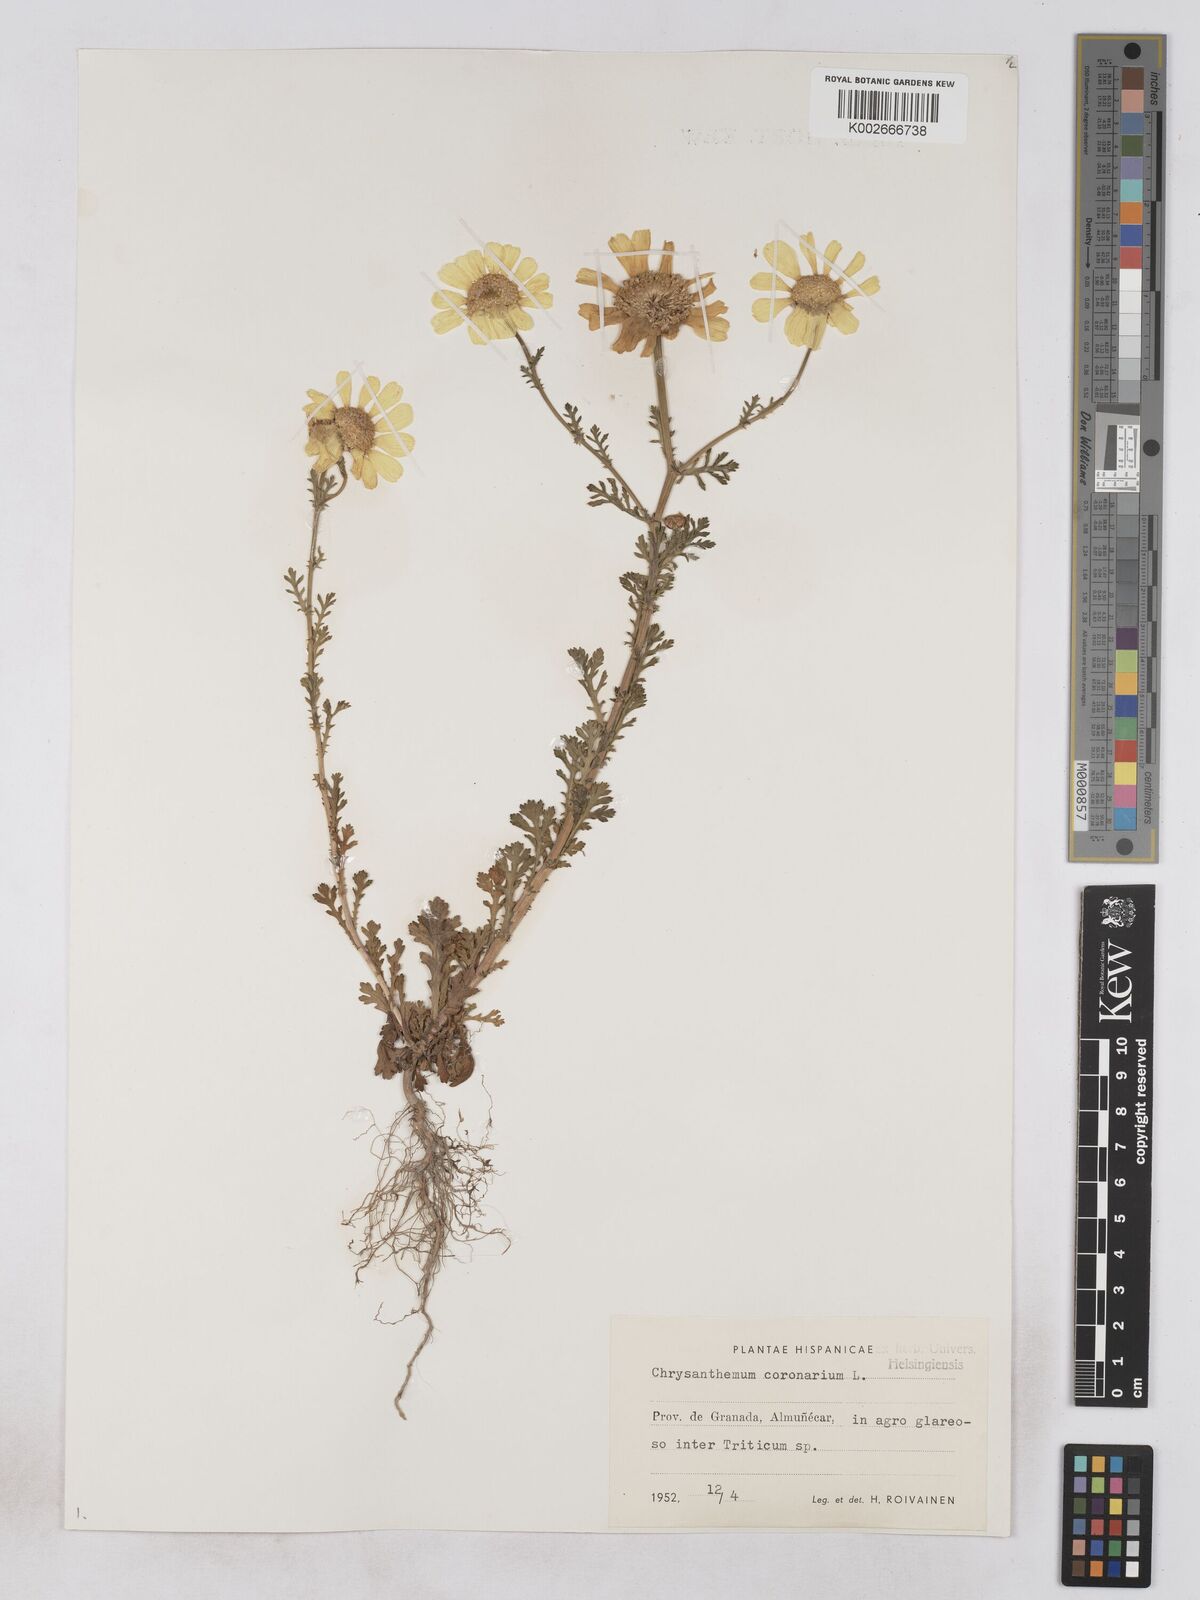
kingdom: Plantae
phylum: Tracheophyta
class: Magnoliopsida
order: Asterales
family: Asteraceae
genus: Glebionis
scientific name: Glebionis
